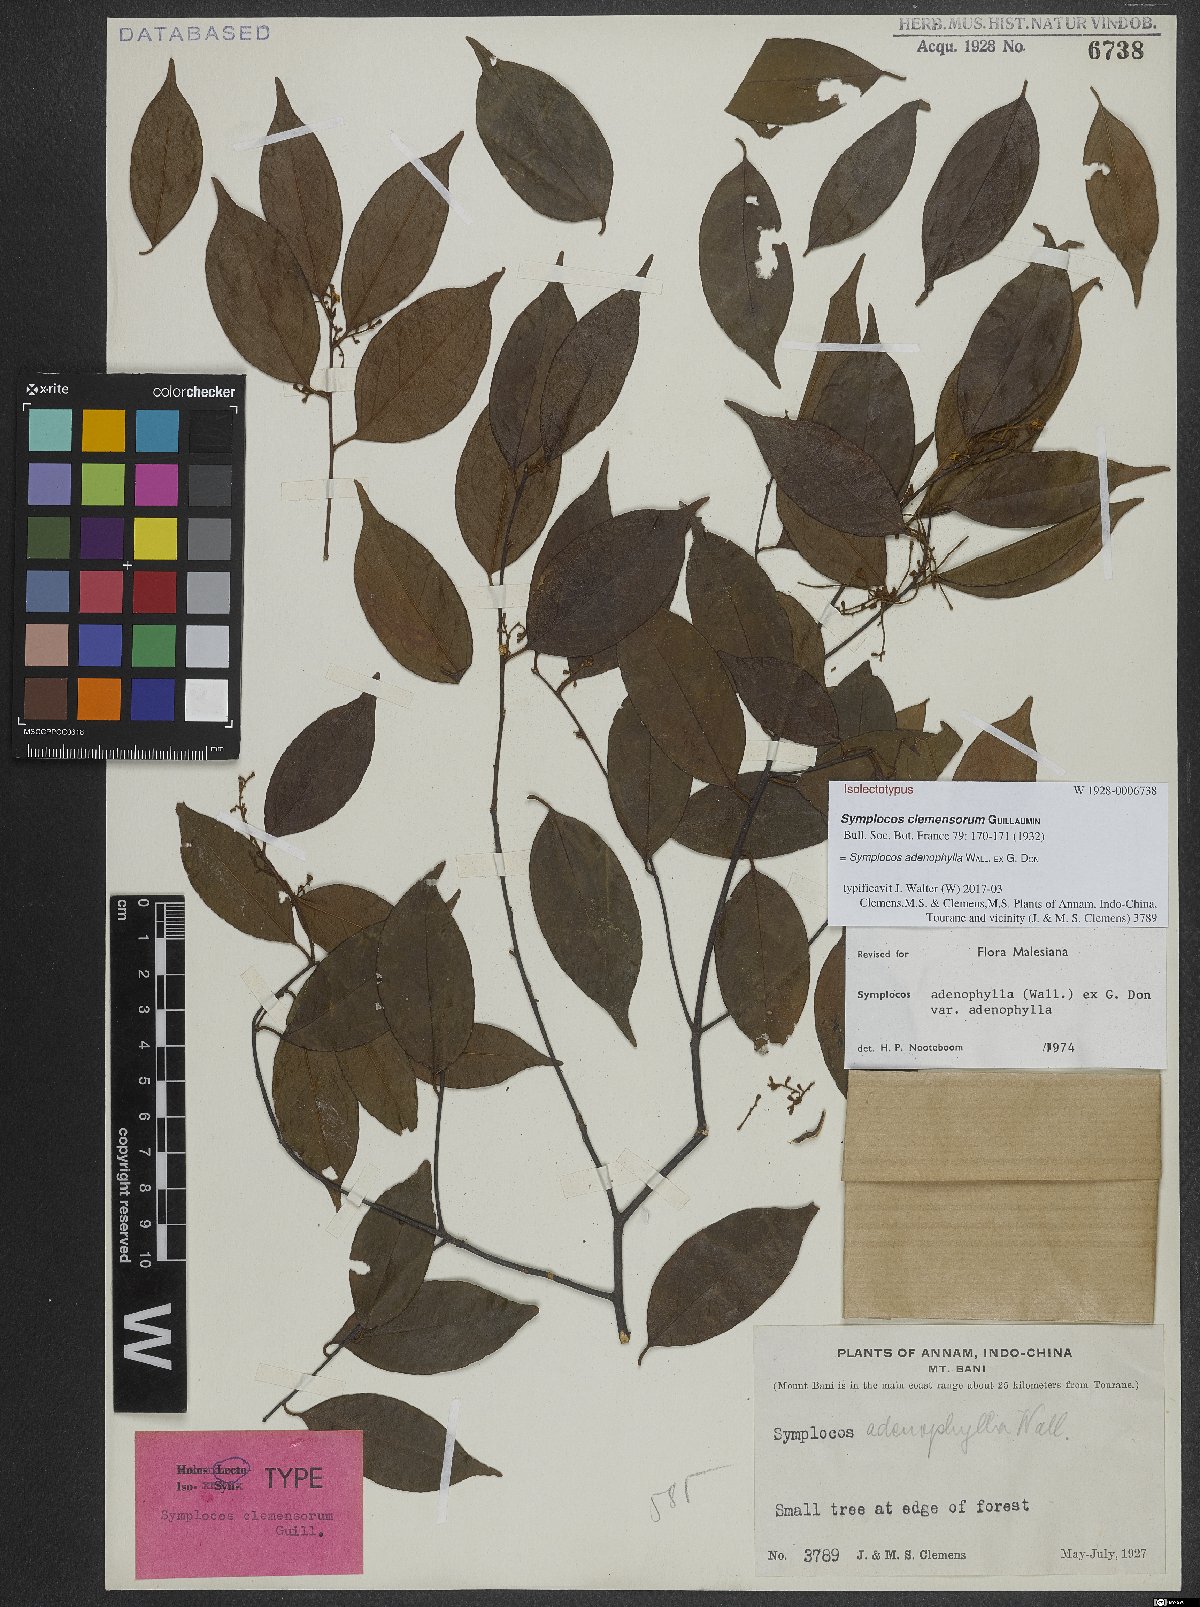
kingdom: Plantae
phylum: Tracheophyta
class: Magnoliopsida
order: Ericales
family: Symplocaceae
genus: Symplocos
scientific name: Symplocos adenophylla
